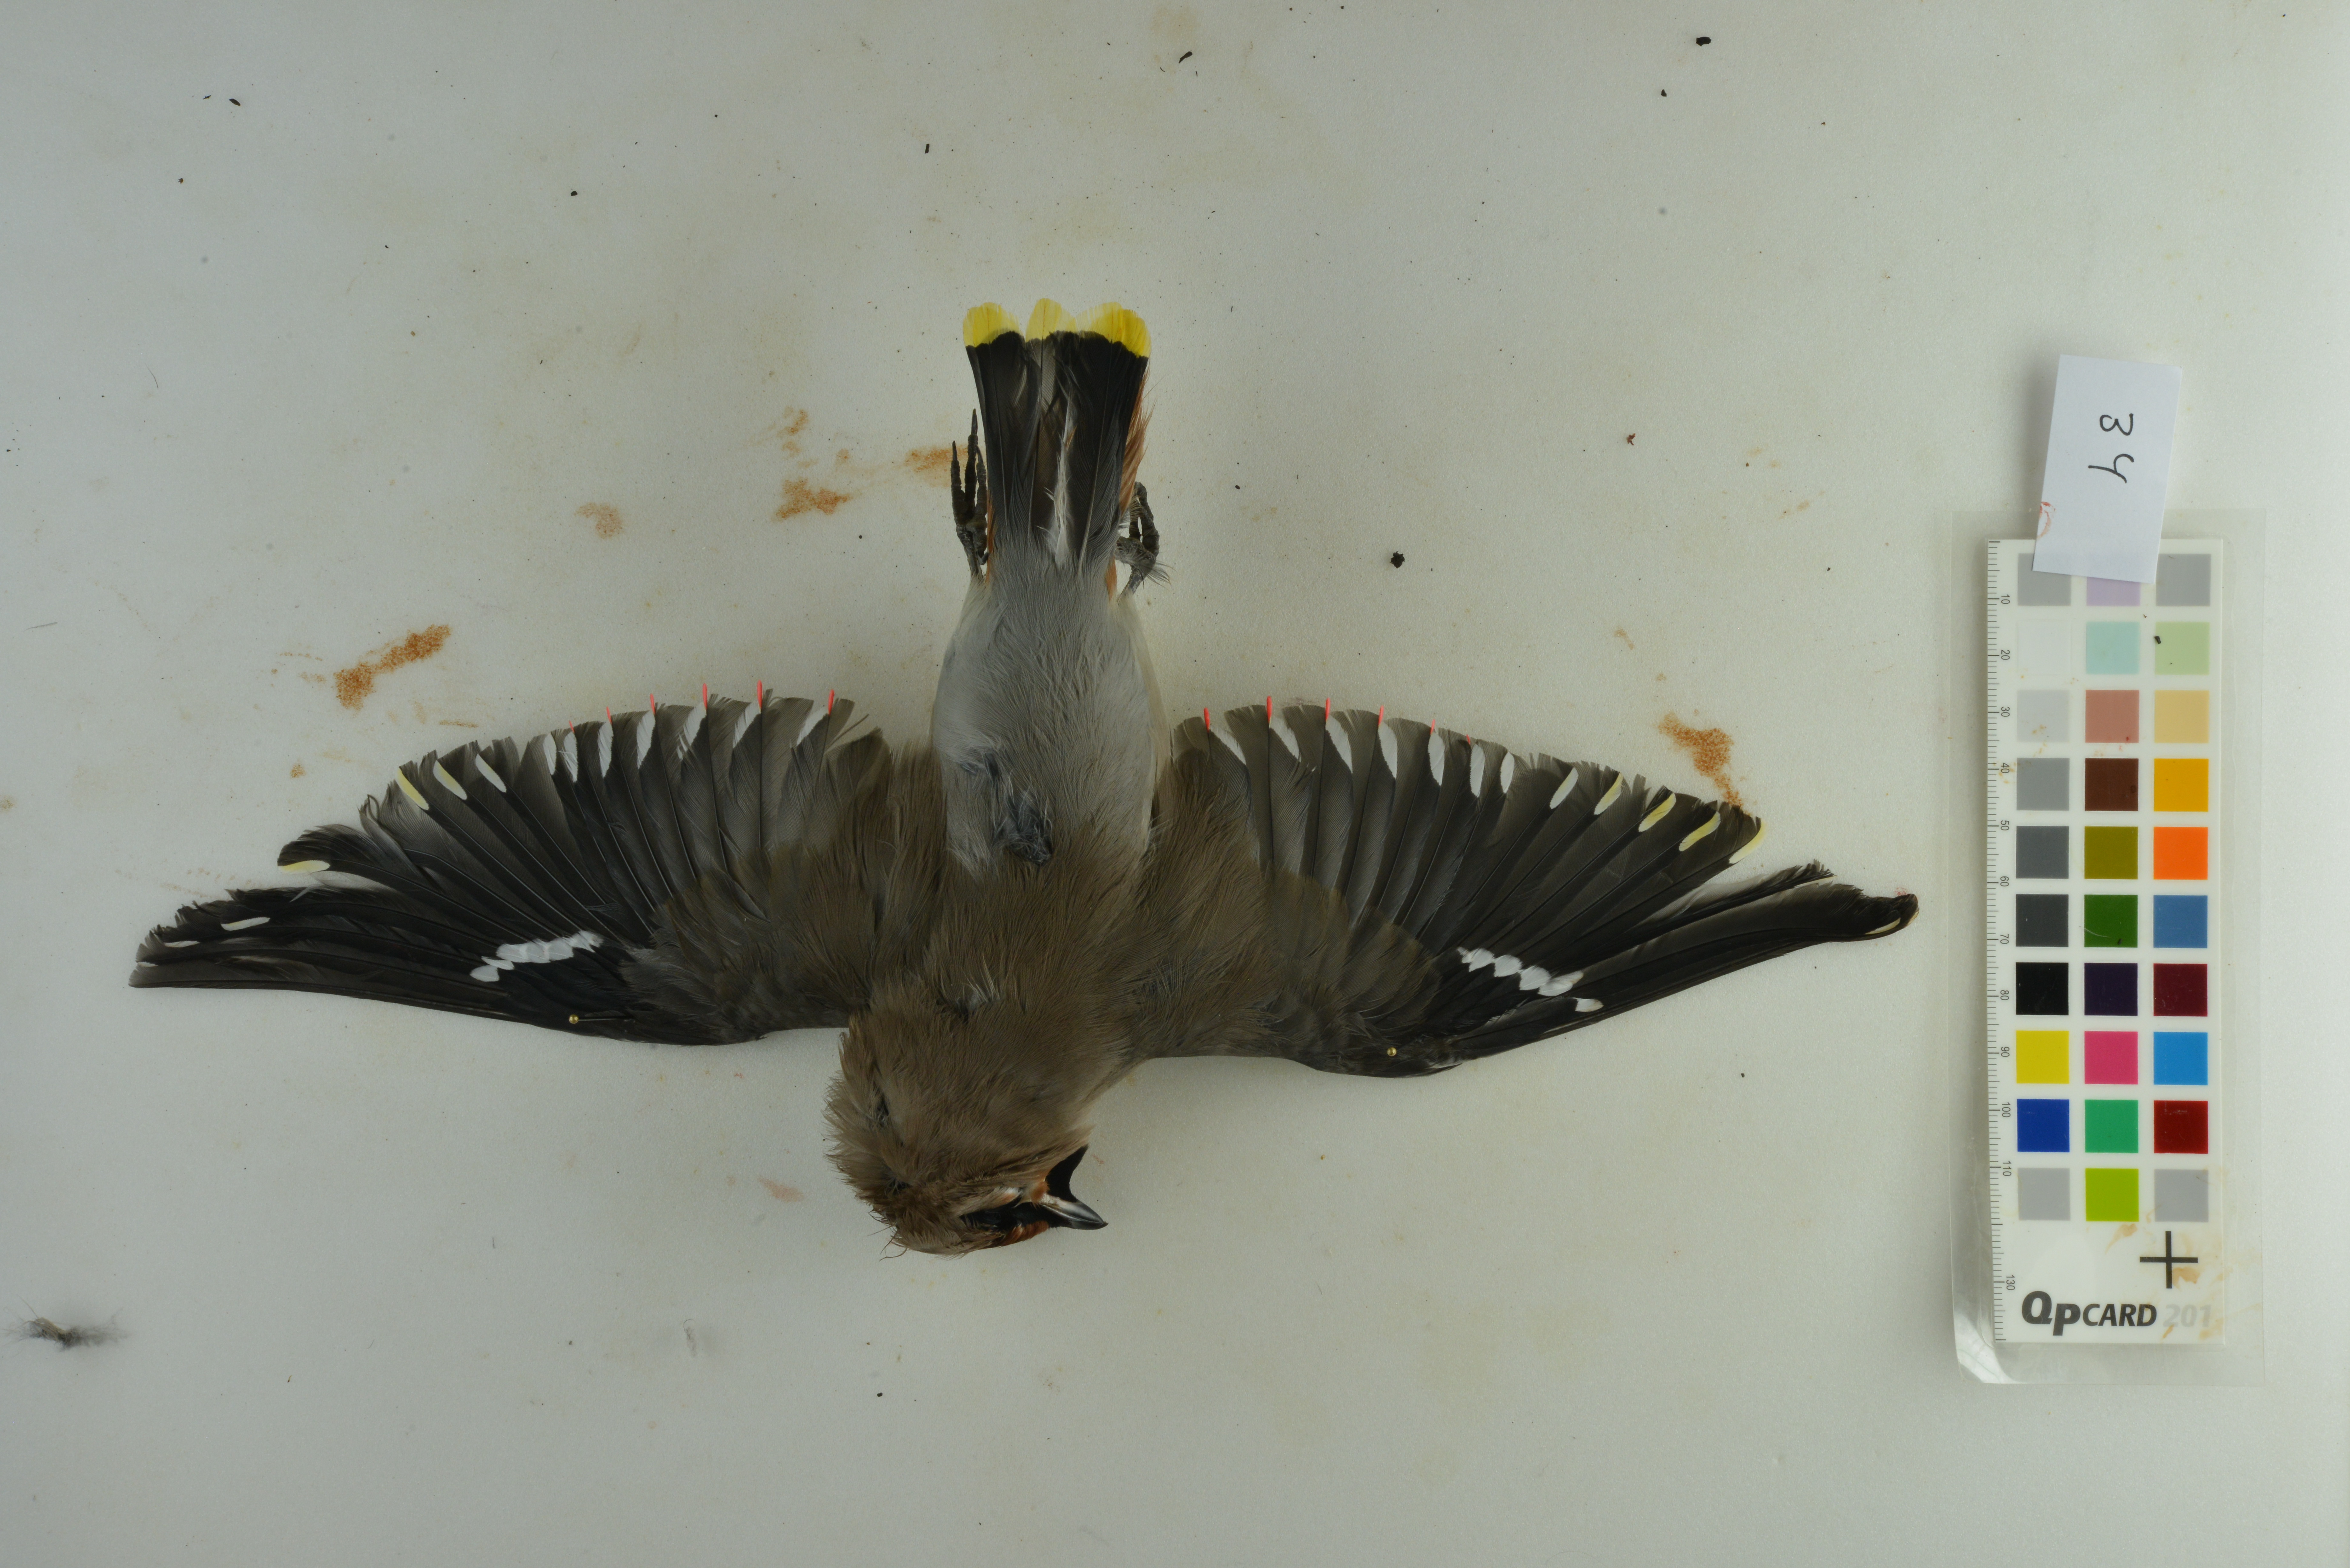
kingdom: Animalia
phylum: Chordata
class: Aves
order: Passeriformes
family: Bombycillidae
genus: Bombycilla
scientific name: Bombycilla garrulus
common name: Bohemian waxwing
